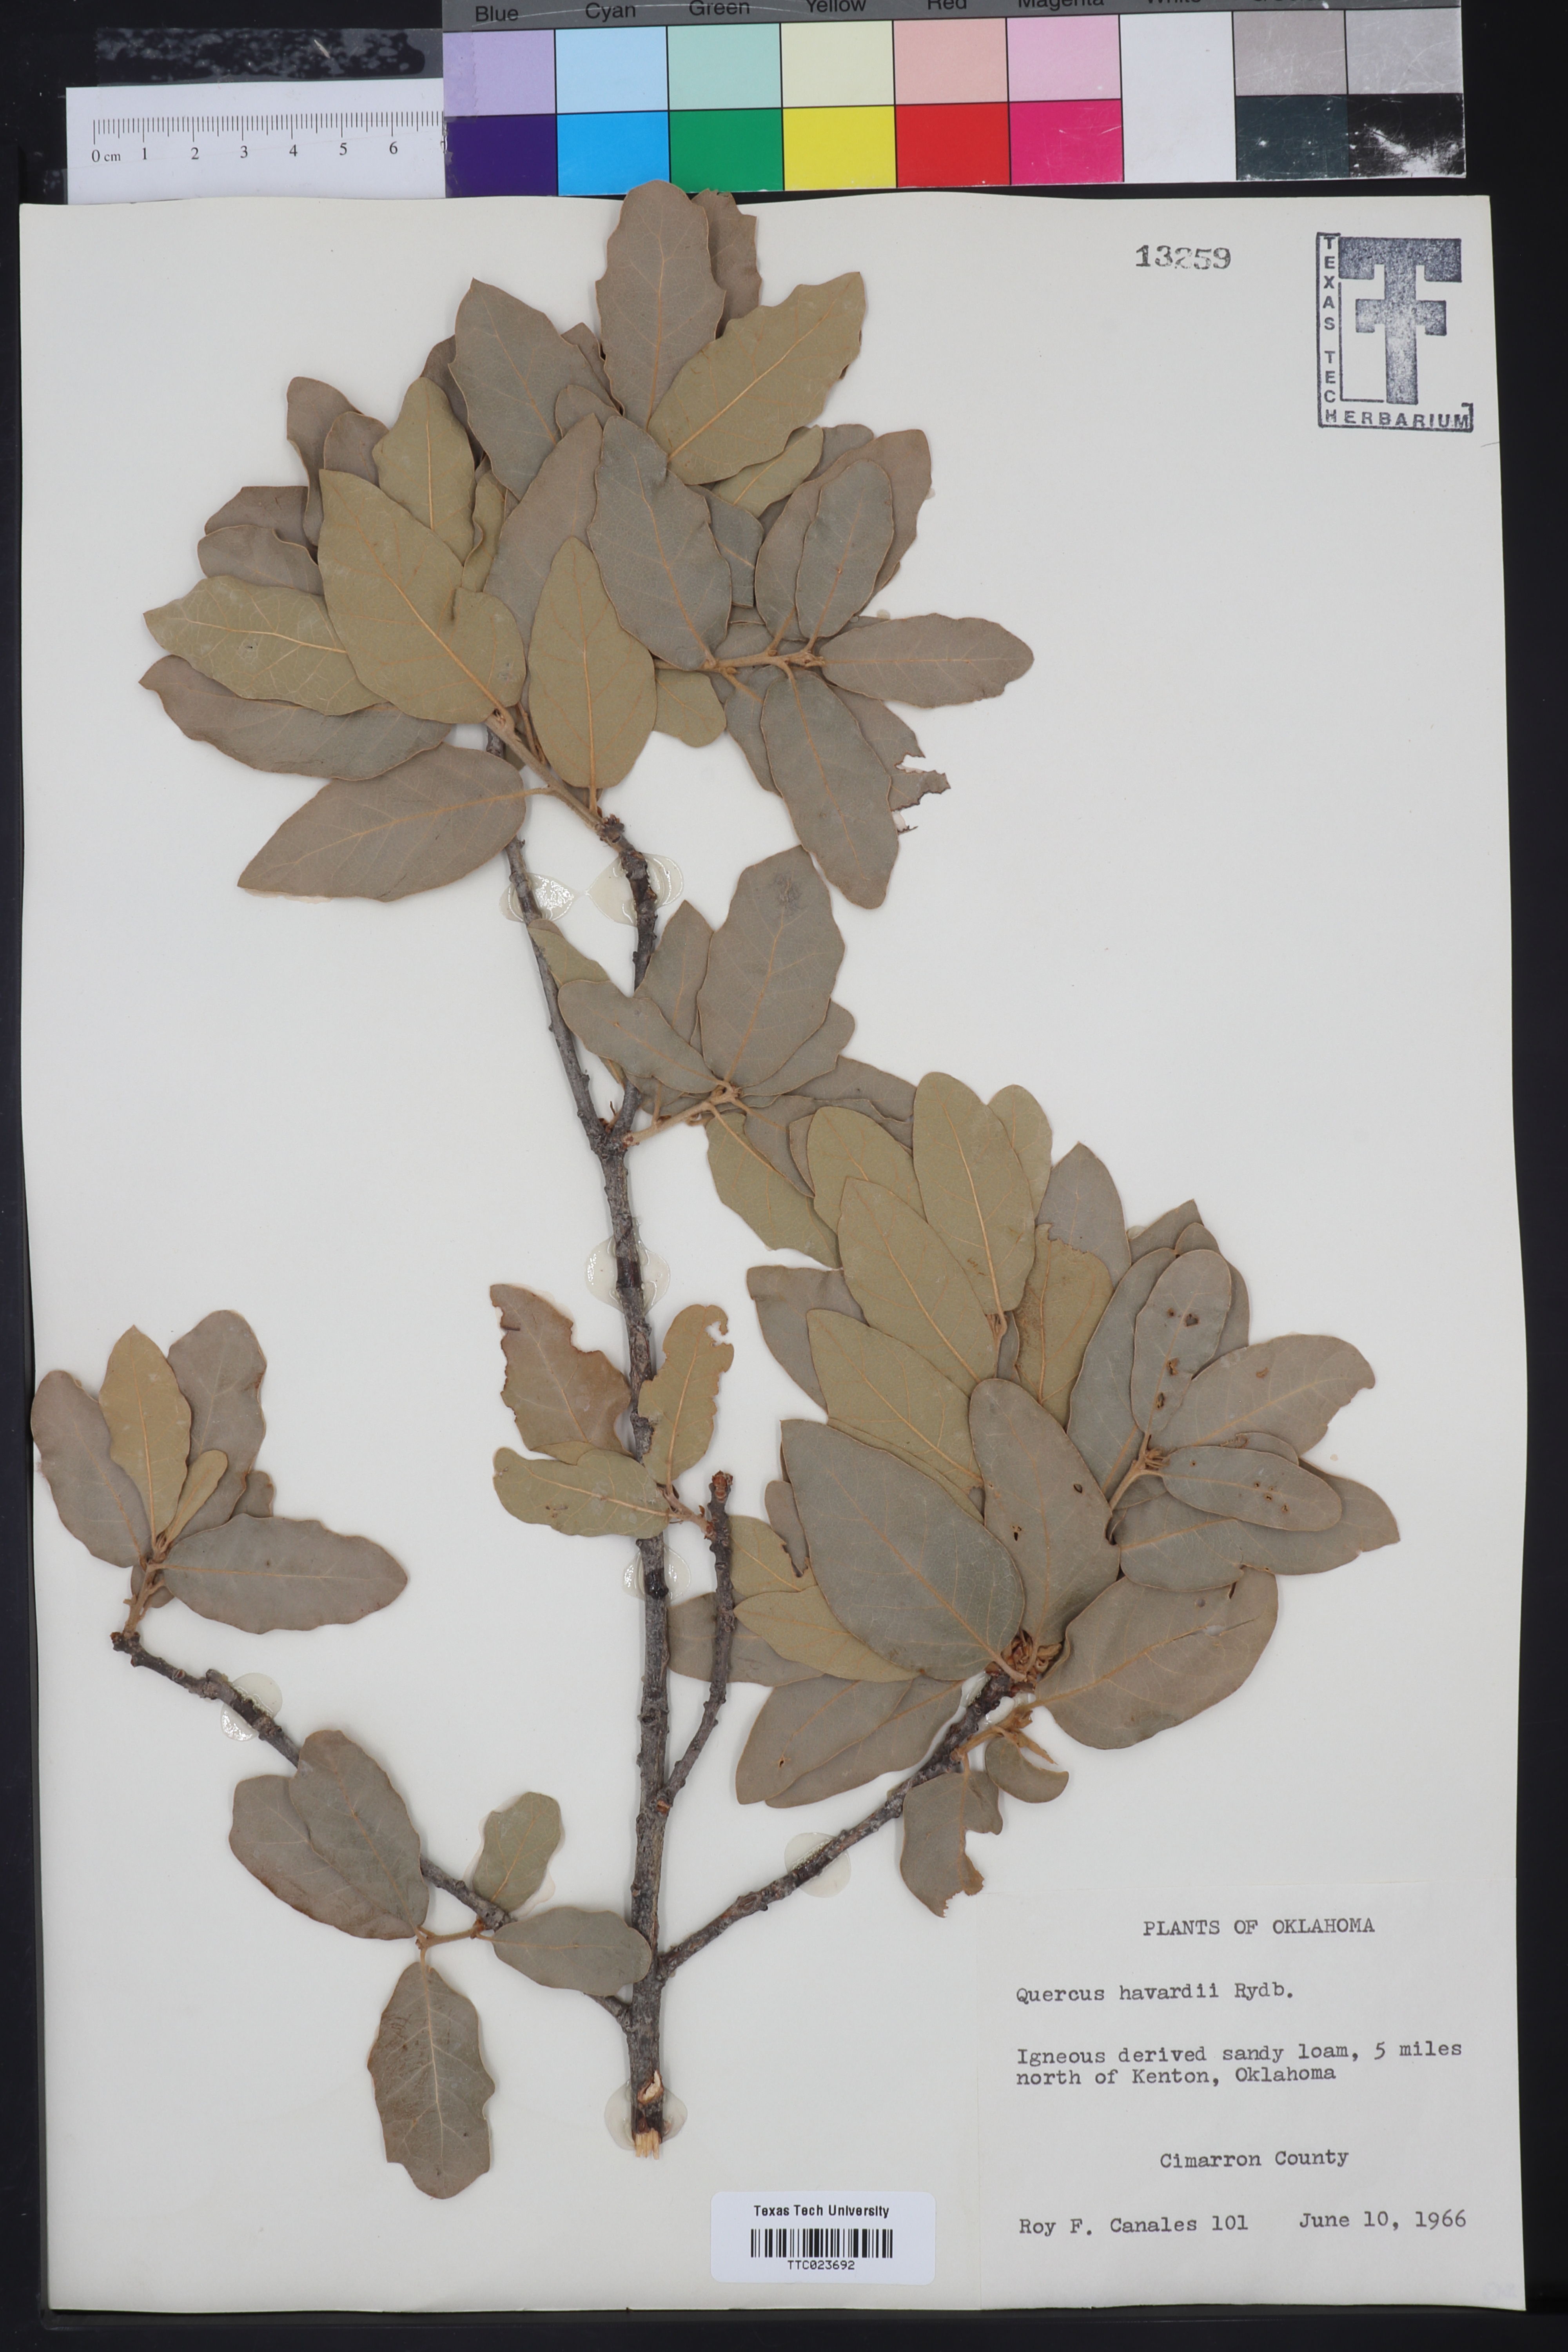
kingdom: Plantae
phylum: Tracheophyta
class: Magnoliopsida
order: Fagales
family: Fagaceae
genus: Quercus
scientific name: Quercus havardii
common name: Shinnery oak
